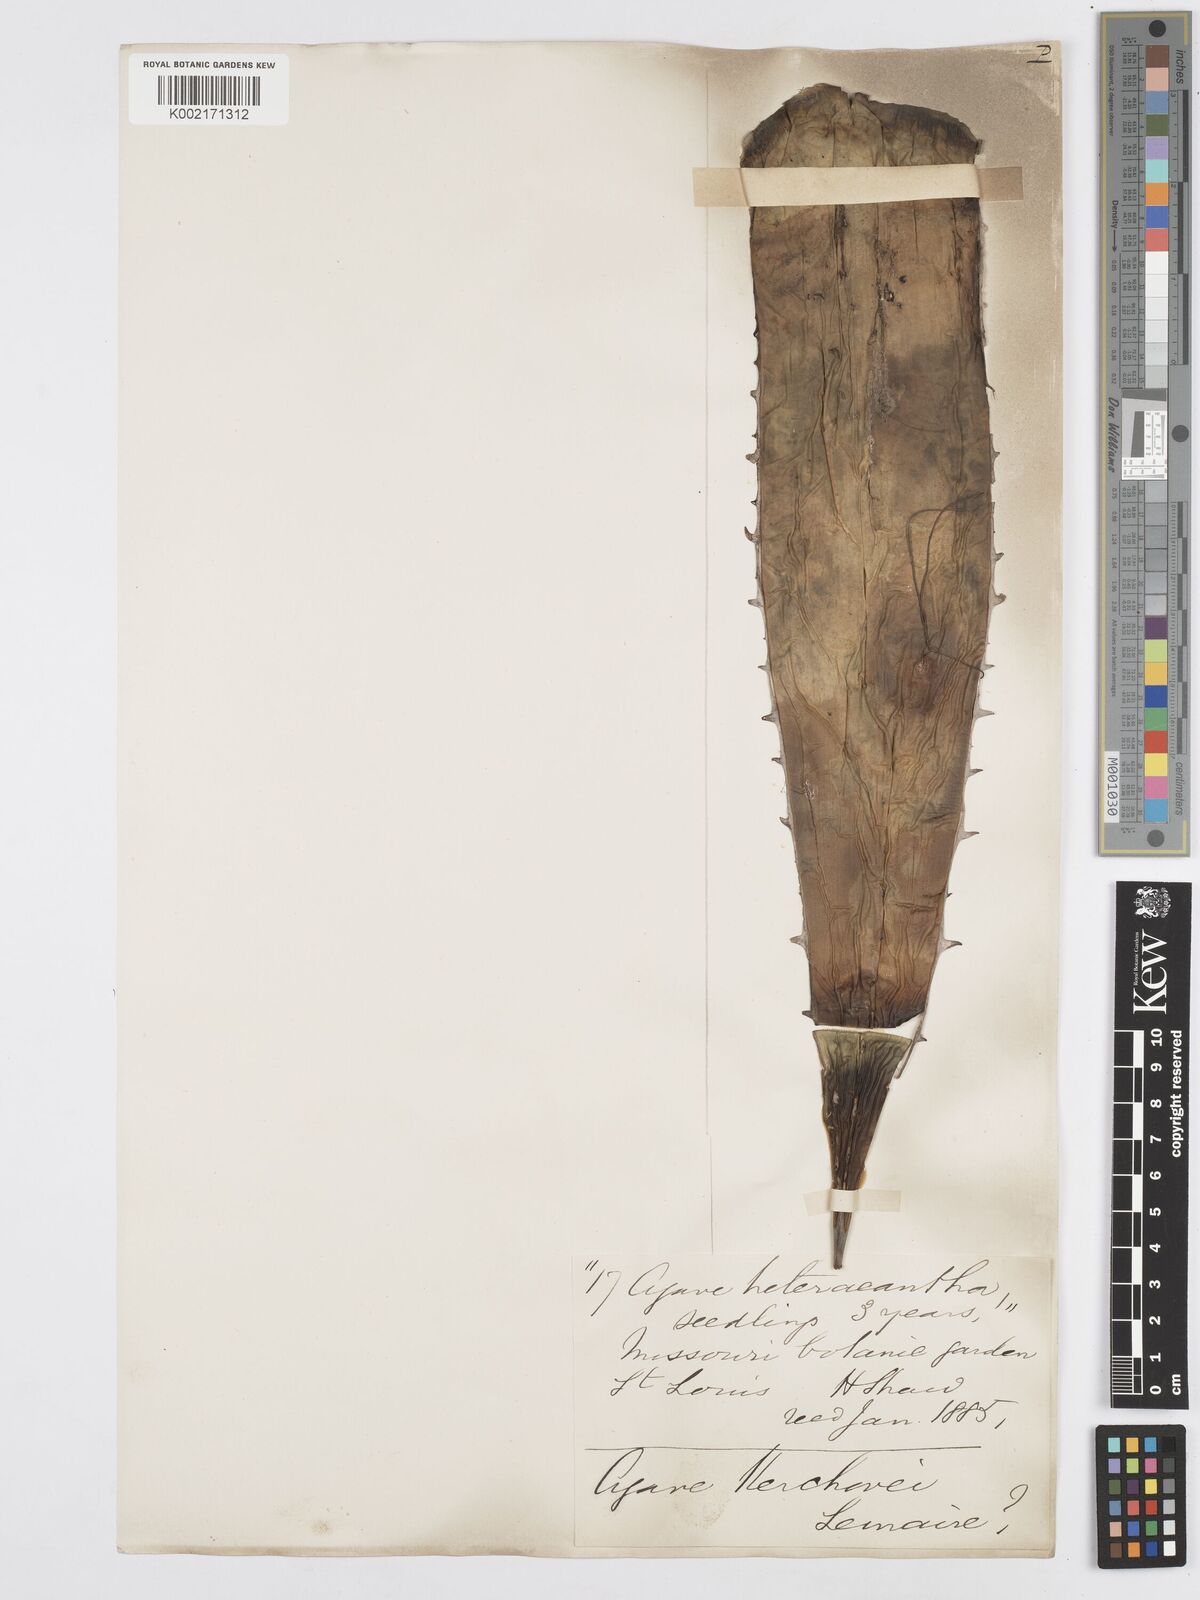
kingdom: Plantae
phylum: Tracheophyta
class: Liliopsida
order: Asparagales
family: Asparagaceae
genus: Agave
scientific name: Agave kerchovei
